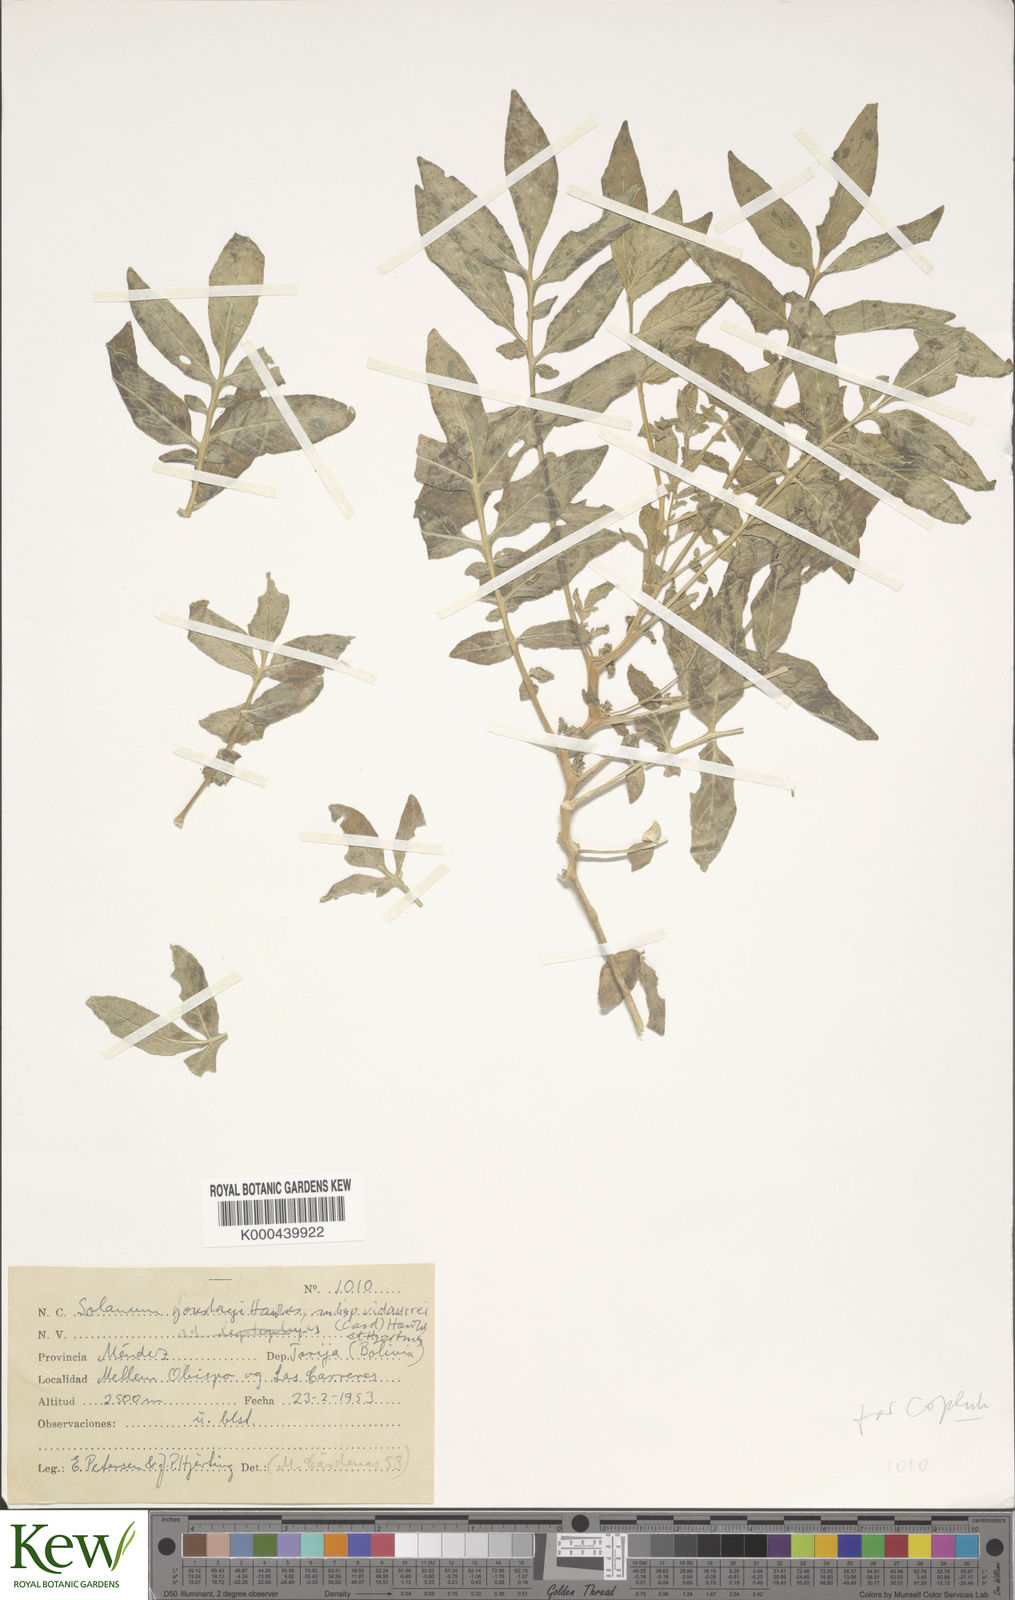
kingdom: Plantae
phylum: Tracheophyta
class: Magnoliopsida
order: Solanales
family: Solanaceae
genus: Solanum
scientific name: Solanum brevicaule
